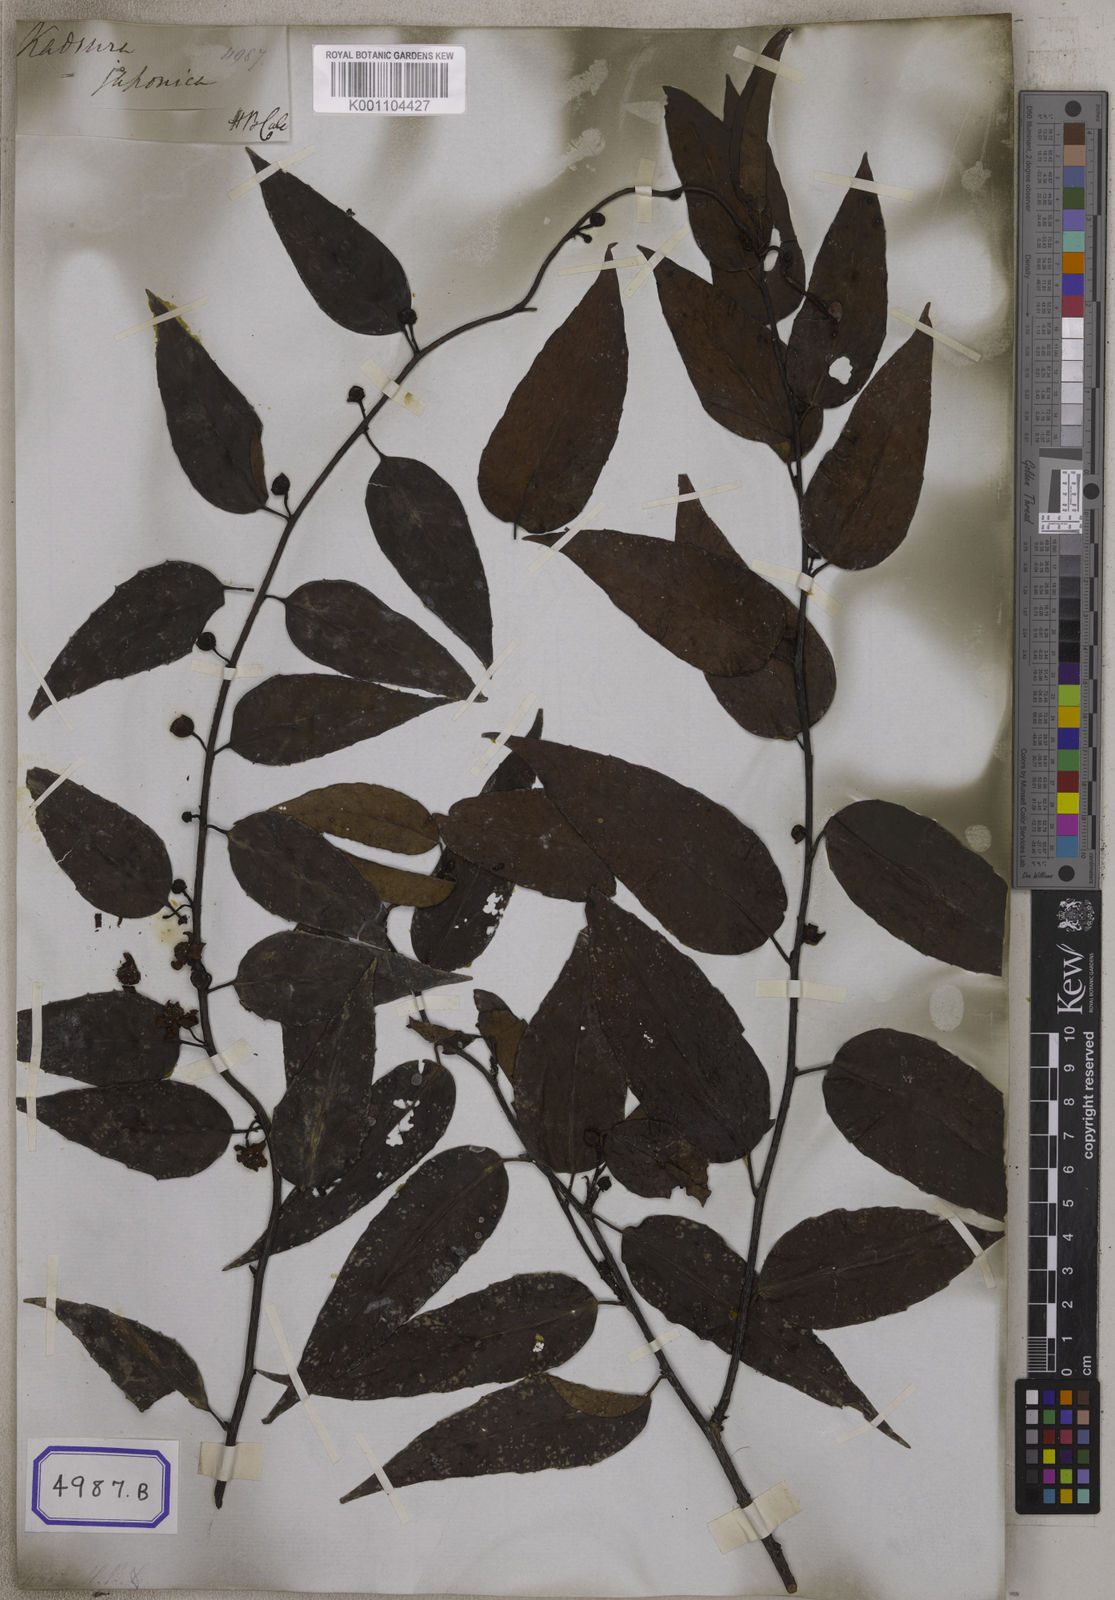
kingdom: Plantae
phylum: Tracheophyta
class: Magnoliopsida
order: Austrobaileyales
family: Schisandraceae
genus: Kadsura
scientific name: Kadsura
